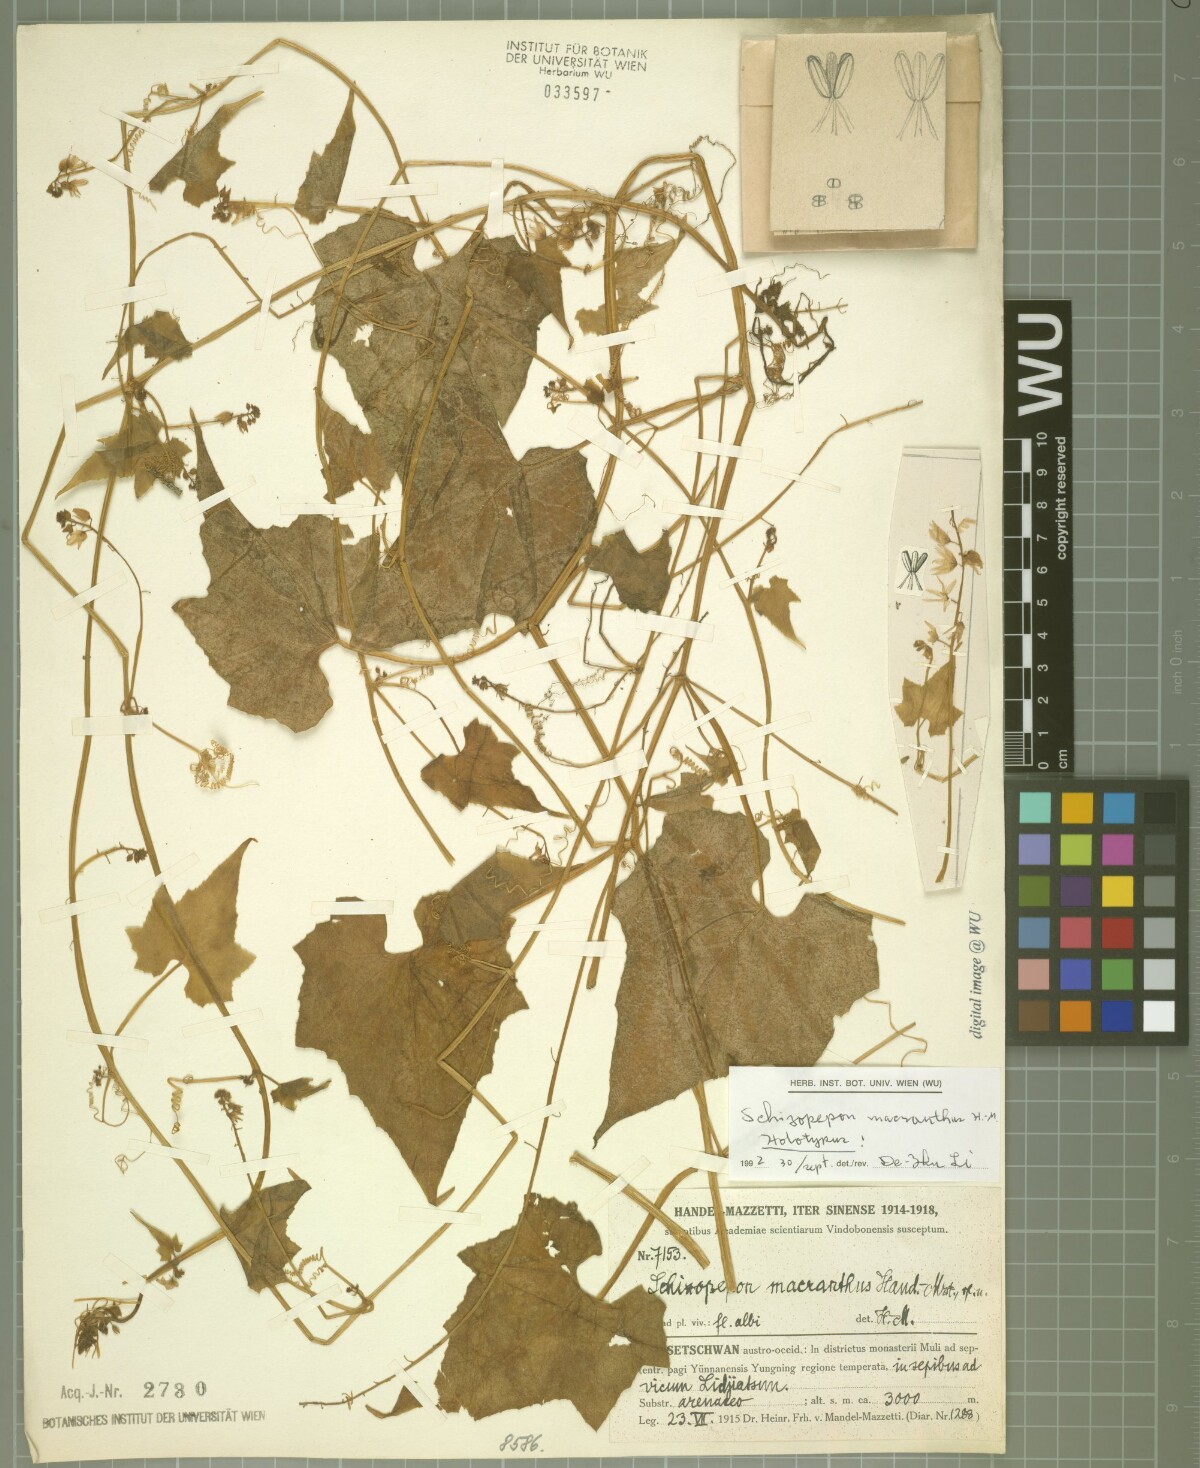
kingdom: Plantae
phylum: Tracheophyta
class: Magnoliopsida
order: Cucurbitales
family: Cucurbitaceae
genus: Schizopepon
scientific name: Schizopepon macranthus
